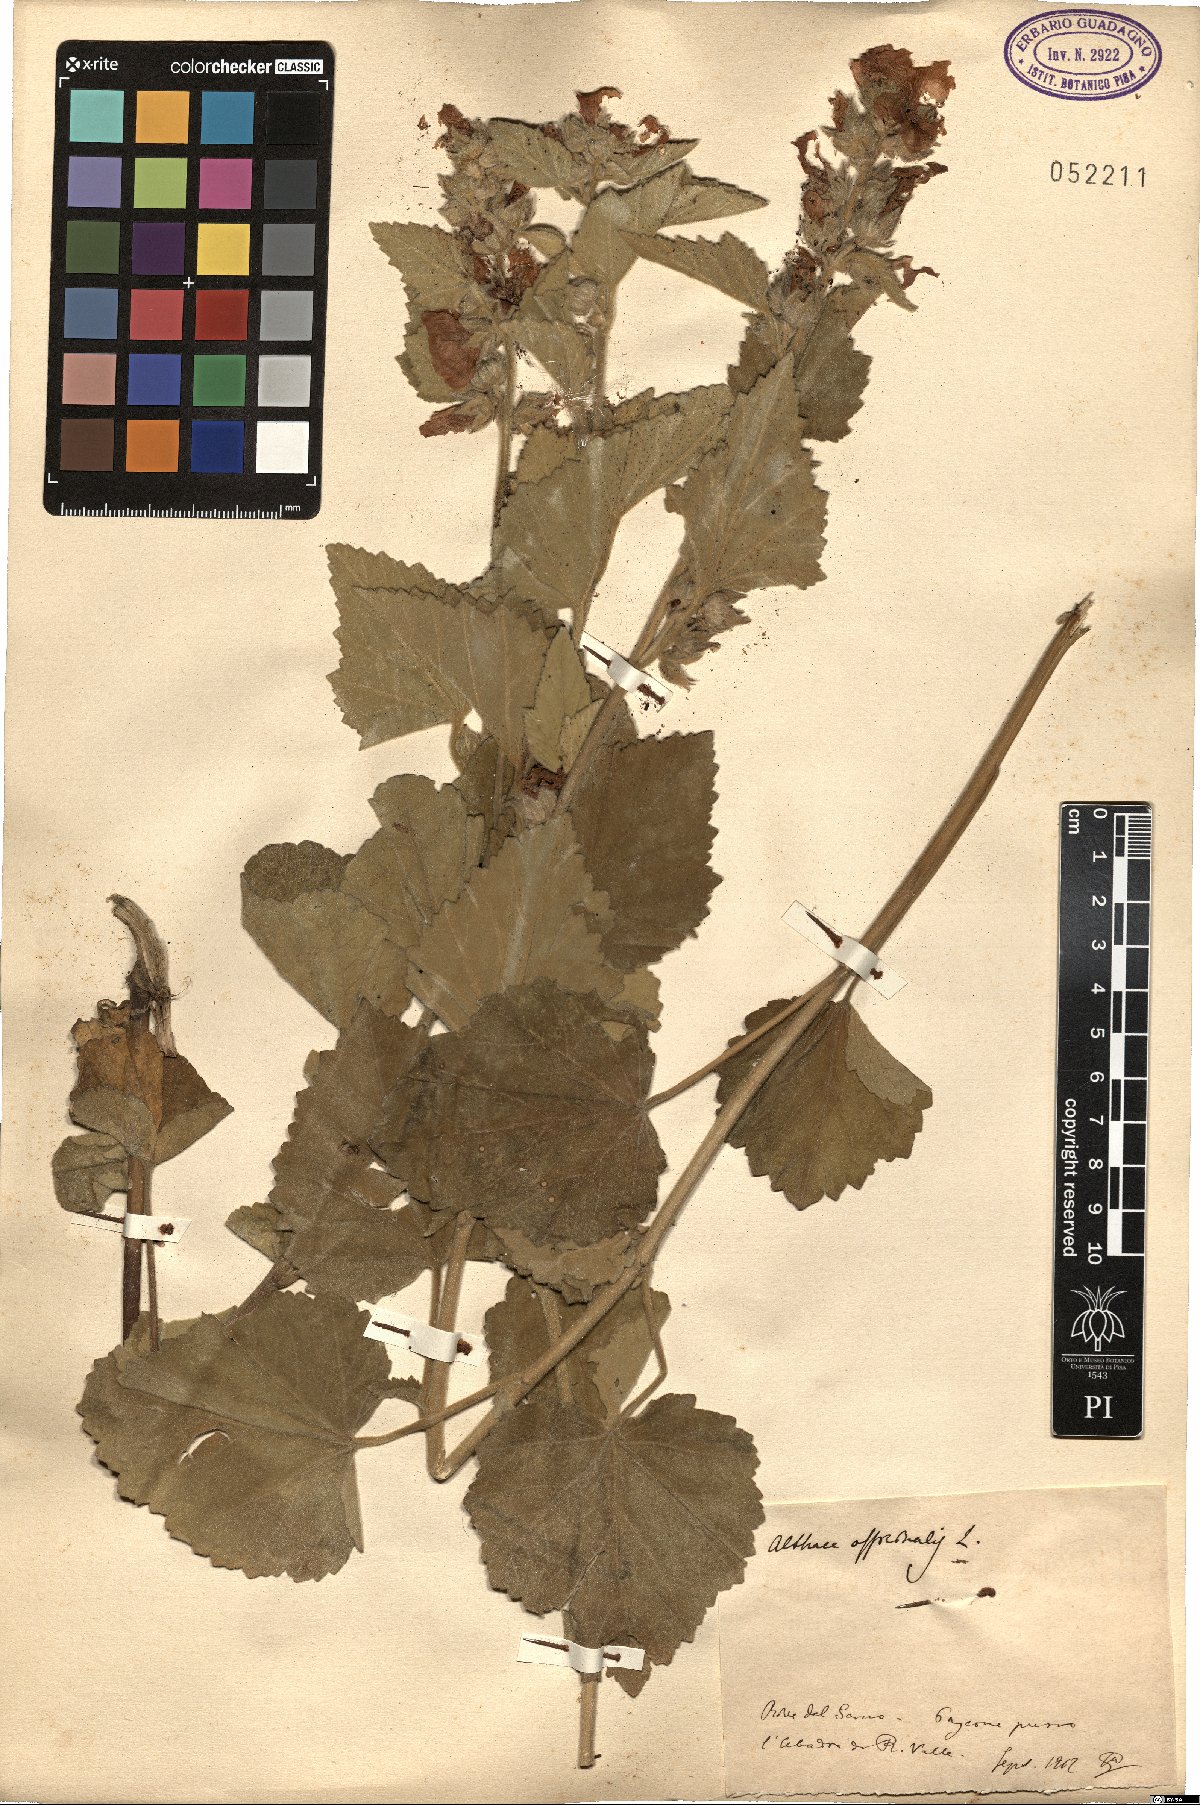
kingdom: Plantae
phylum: Tracheophyta
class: Magnoliopsida
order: Malvales
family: Malvaceae
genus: Althaea
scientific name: Althaea officinalis
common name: Marsh-mallow
